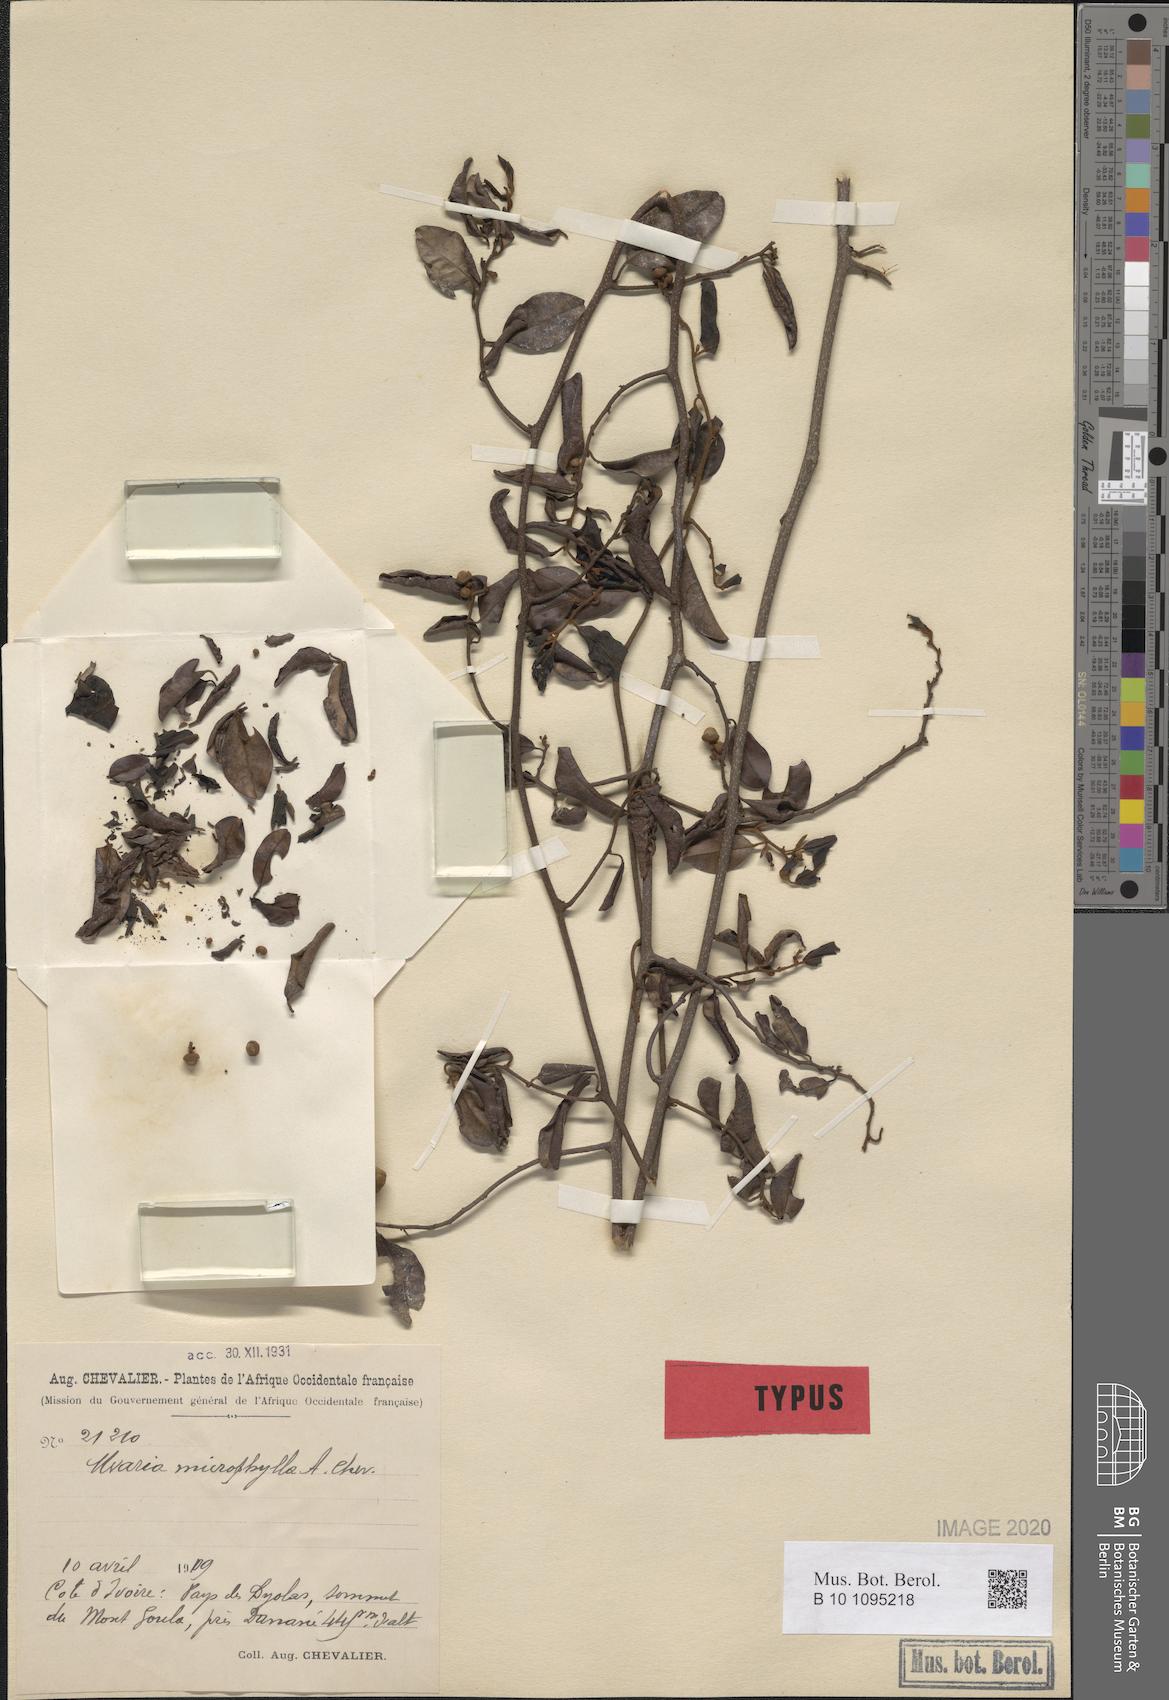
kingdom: Plantae
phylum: Tracheophyta
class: Magnoliopsida
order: Magnoliales
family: Annonaceae
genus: Uvaria
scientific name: Uvaria ovata
